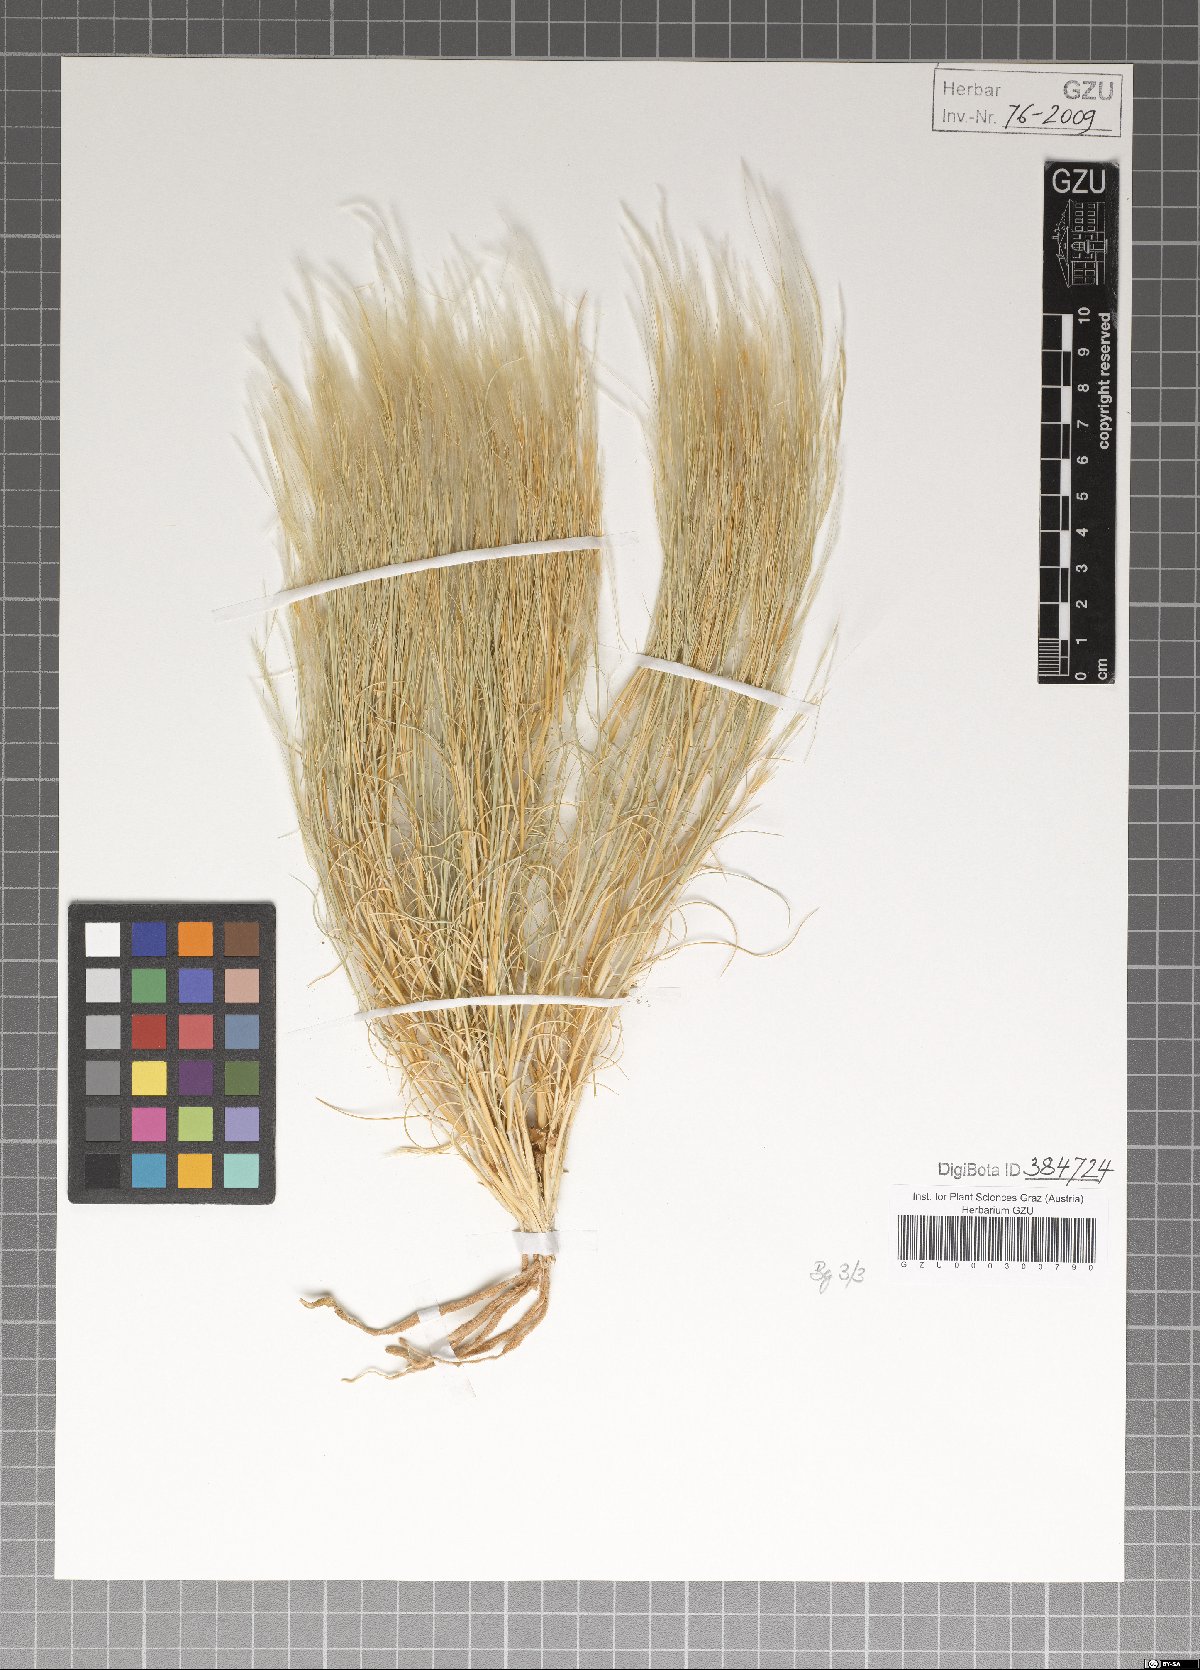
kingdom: Plantae
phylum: Tracheophyta
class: Liliopsida
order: Poales
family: Poaceae
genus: Stipagrostis
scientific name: Stipagrostis plumosa
